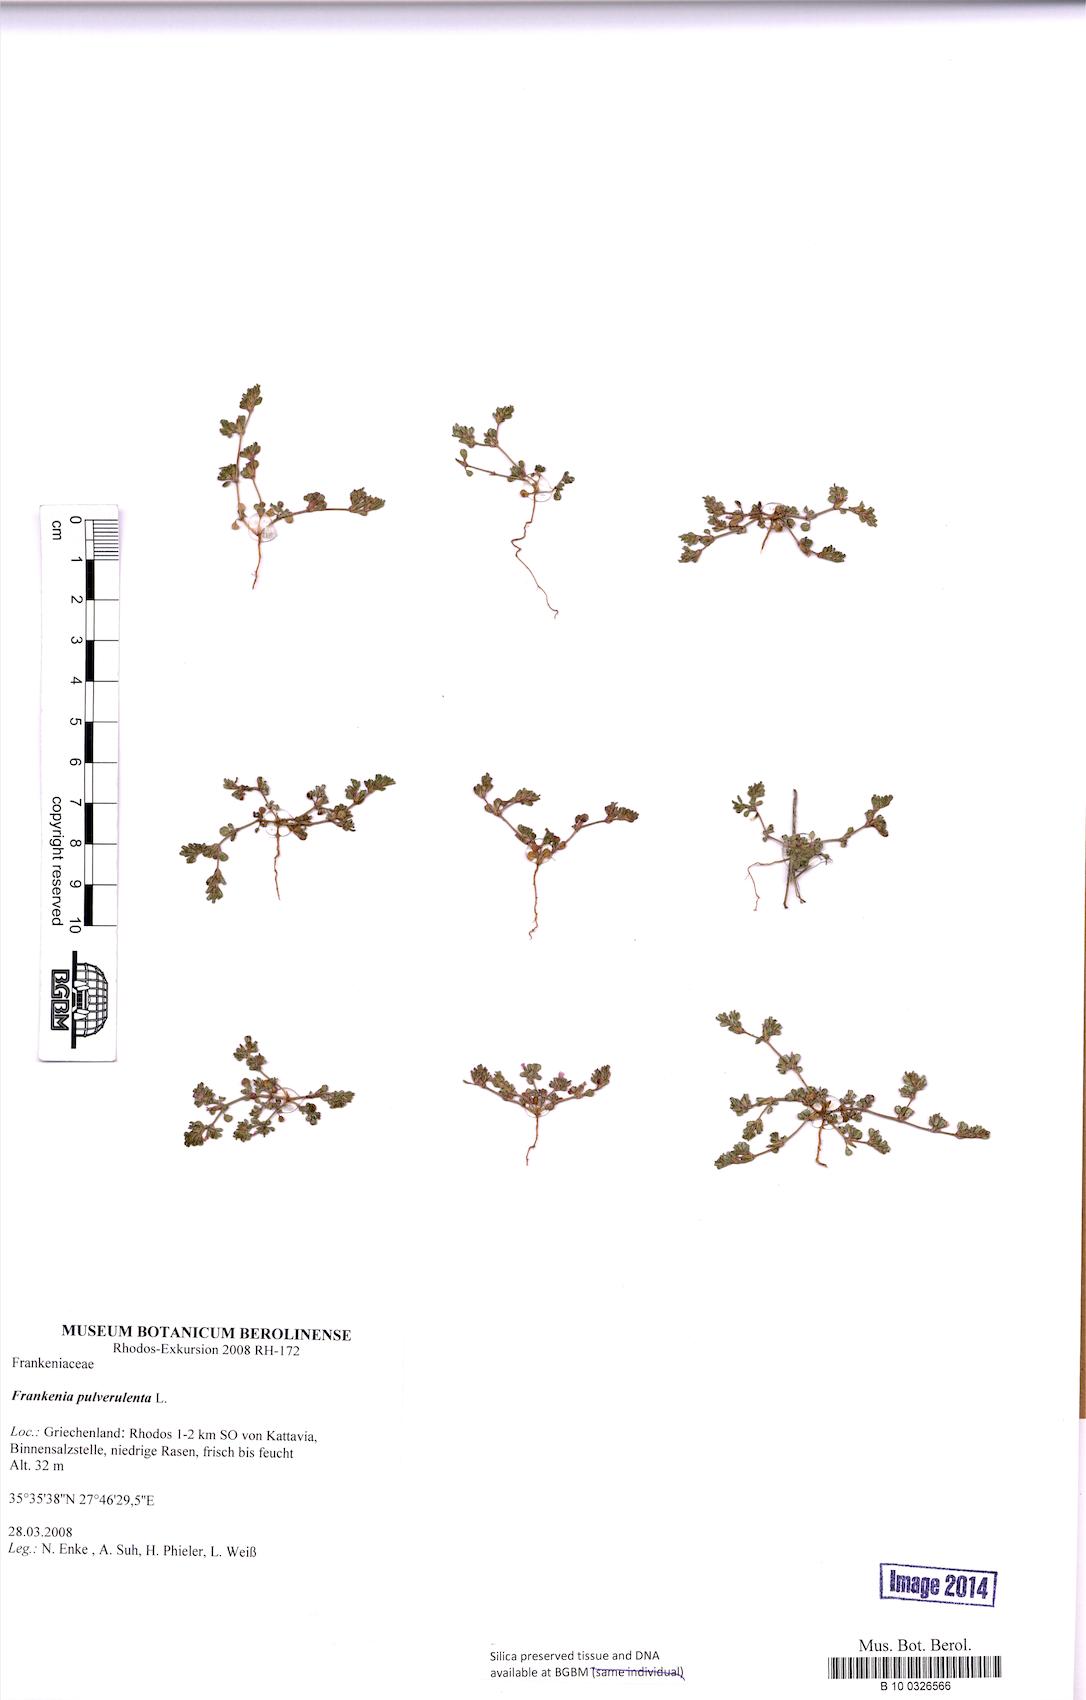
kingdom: Plantae
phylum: Tracheophyta
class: Magnoliopsida
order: Caryophyllales
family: Frankeniaceae
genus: Frankenia
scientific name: Frankenia pulverulenta
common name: European seaheath
